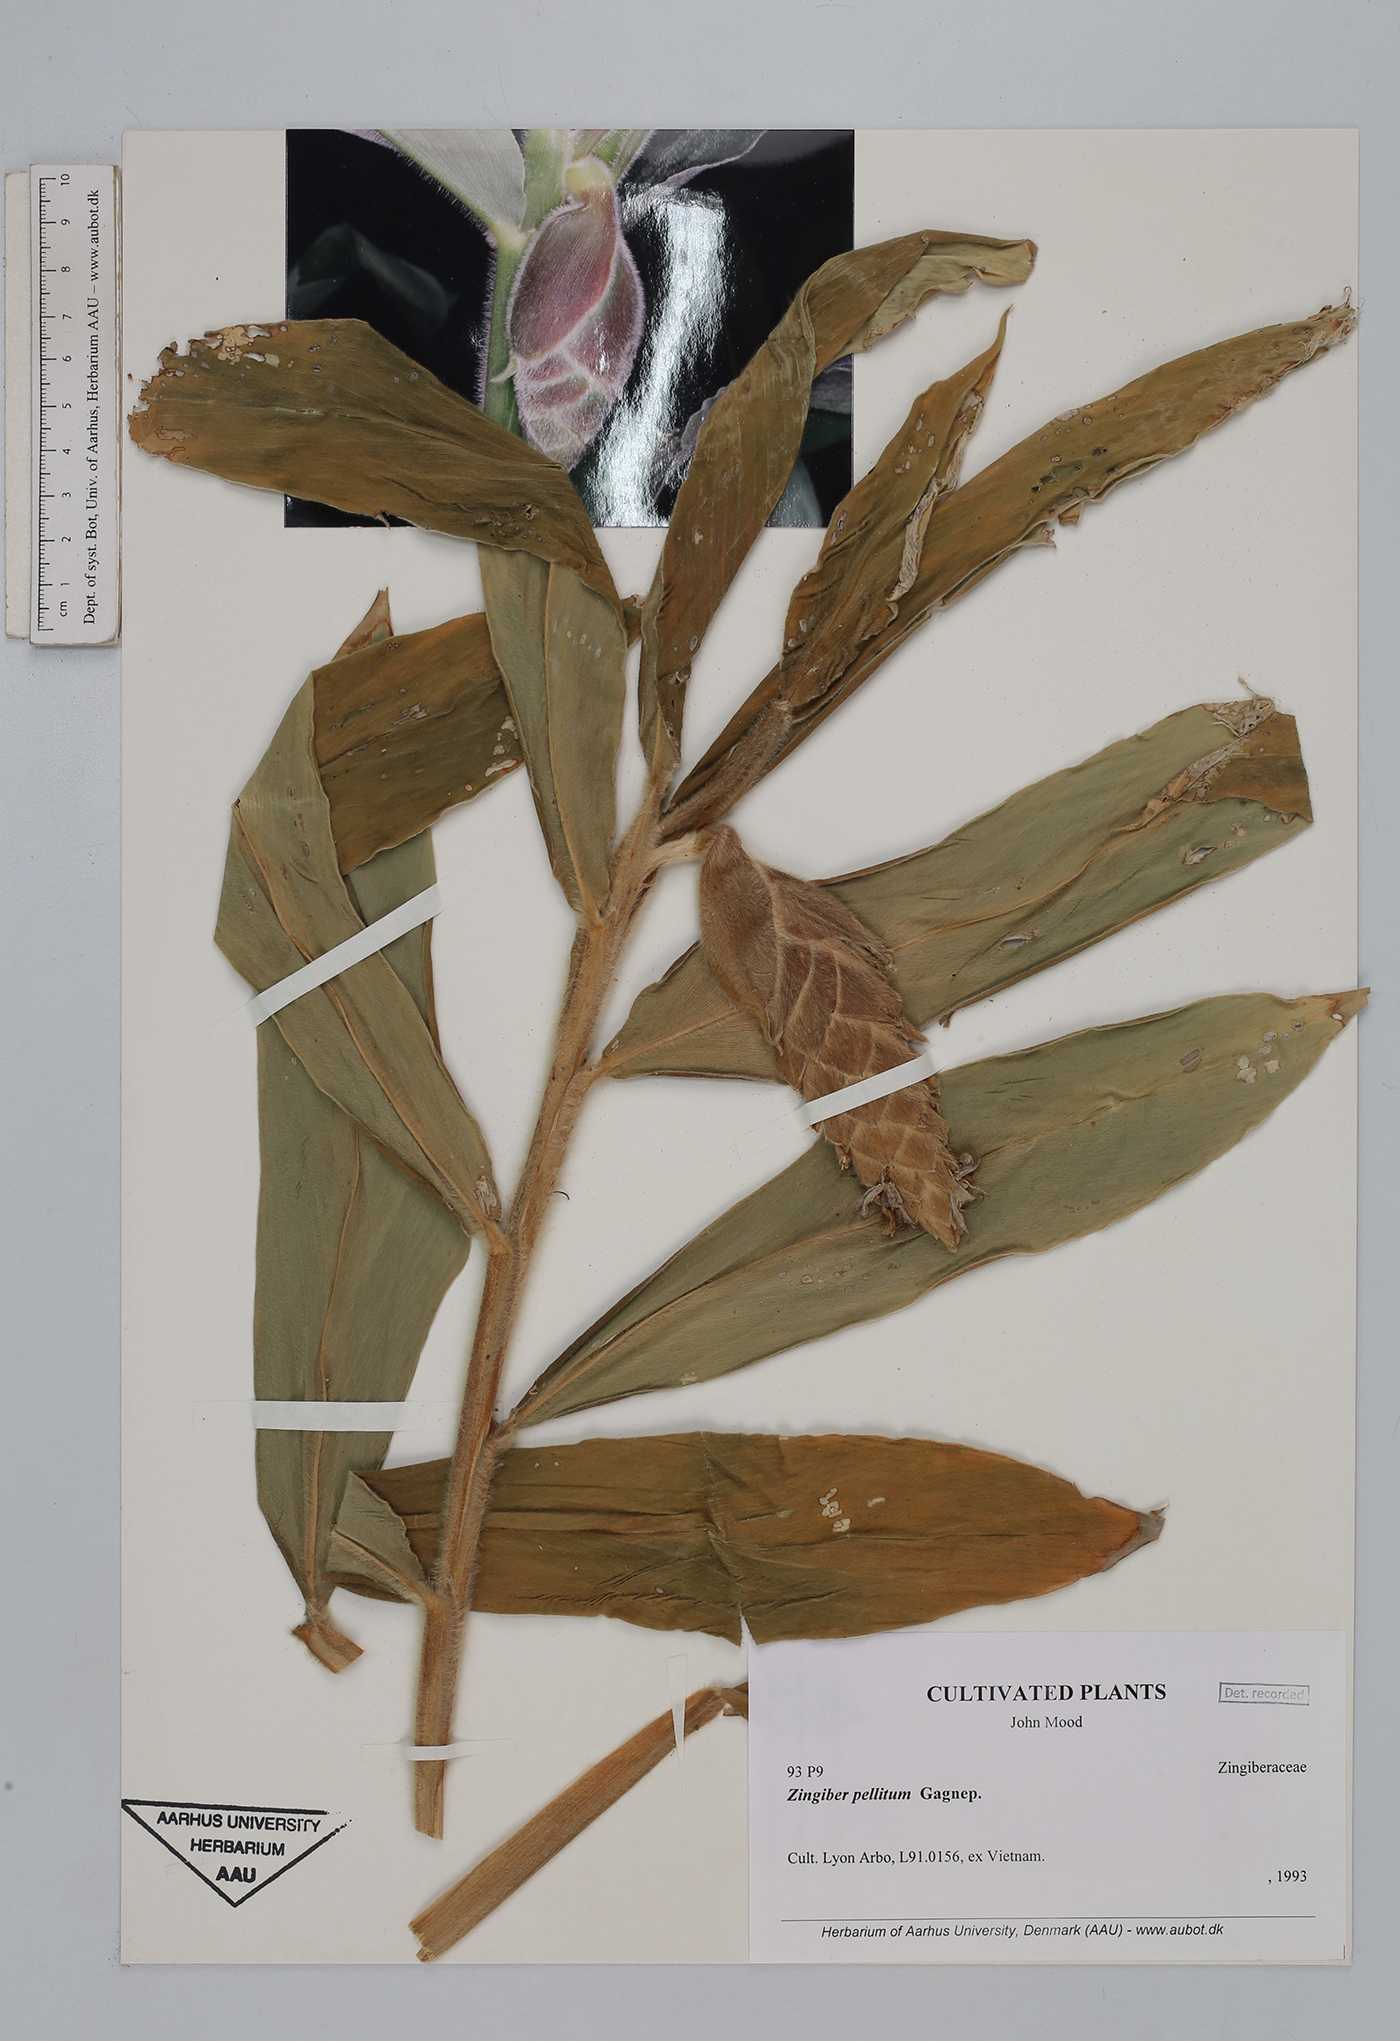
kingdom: Plantae
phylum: Tracheophyta
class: Liliopsida
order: Zingiberales
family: Zingiberaceae
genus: Zingiber
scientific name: Zingiber pellitum
